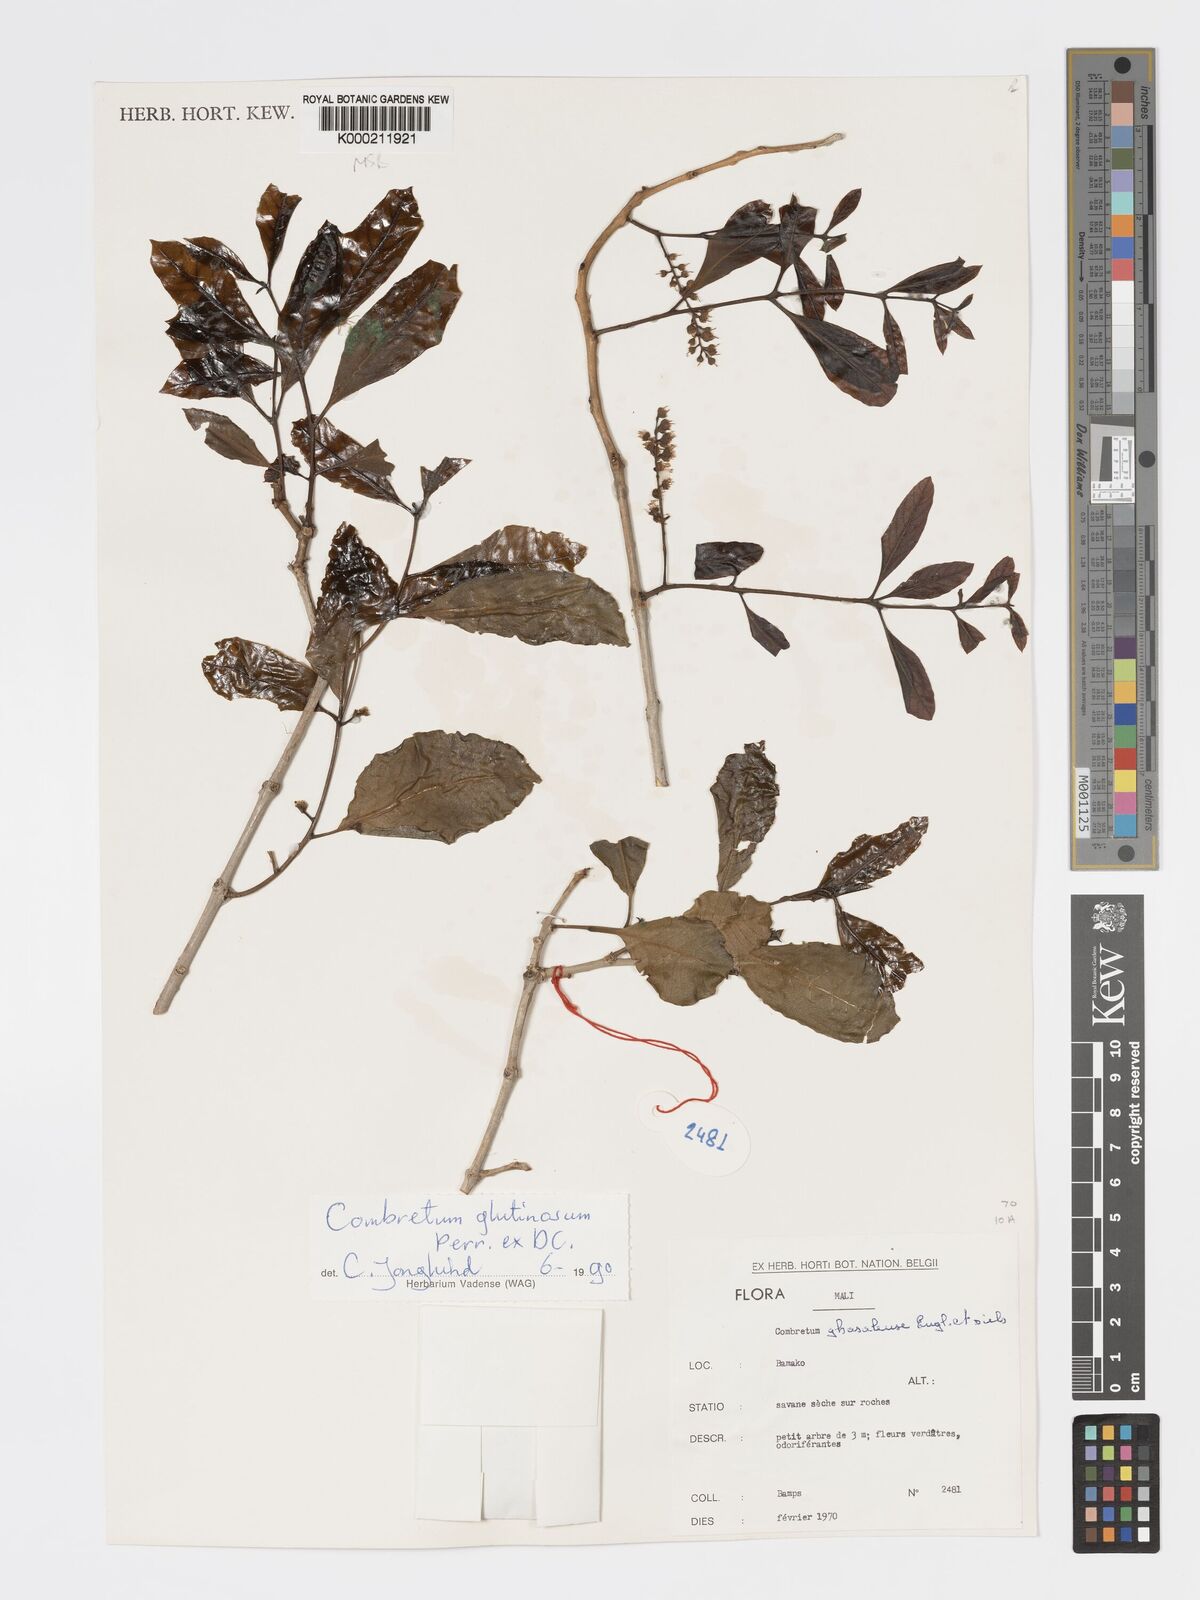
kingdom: Plantae
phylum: Tracheophyta
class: Magnoliopsida
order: Myrtales
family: Combretaceae
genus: Combretum
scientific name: Combretum glutinosum
